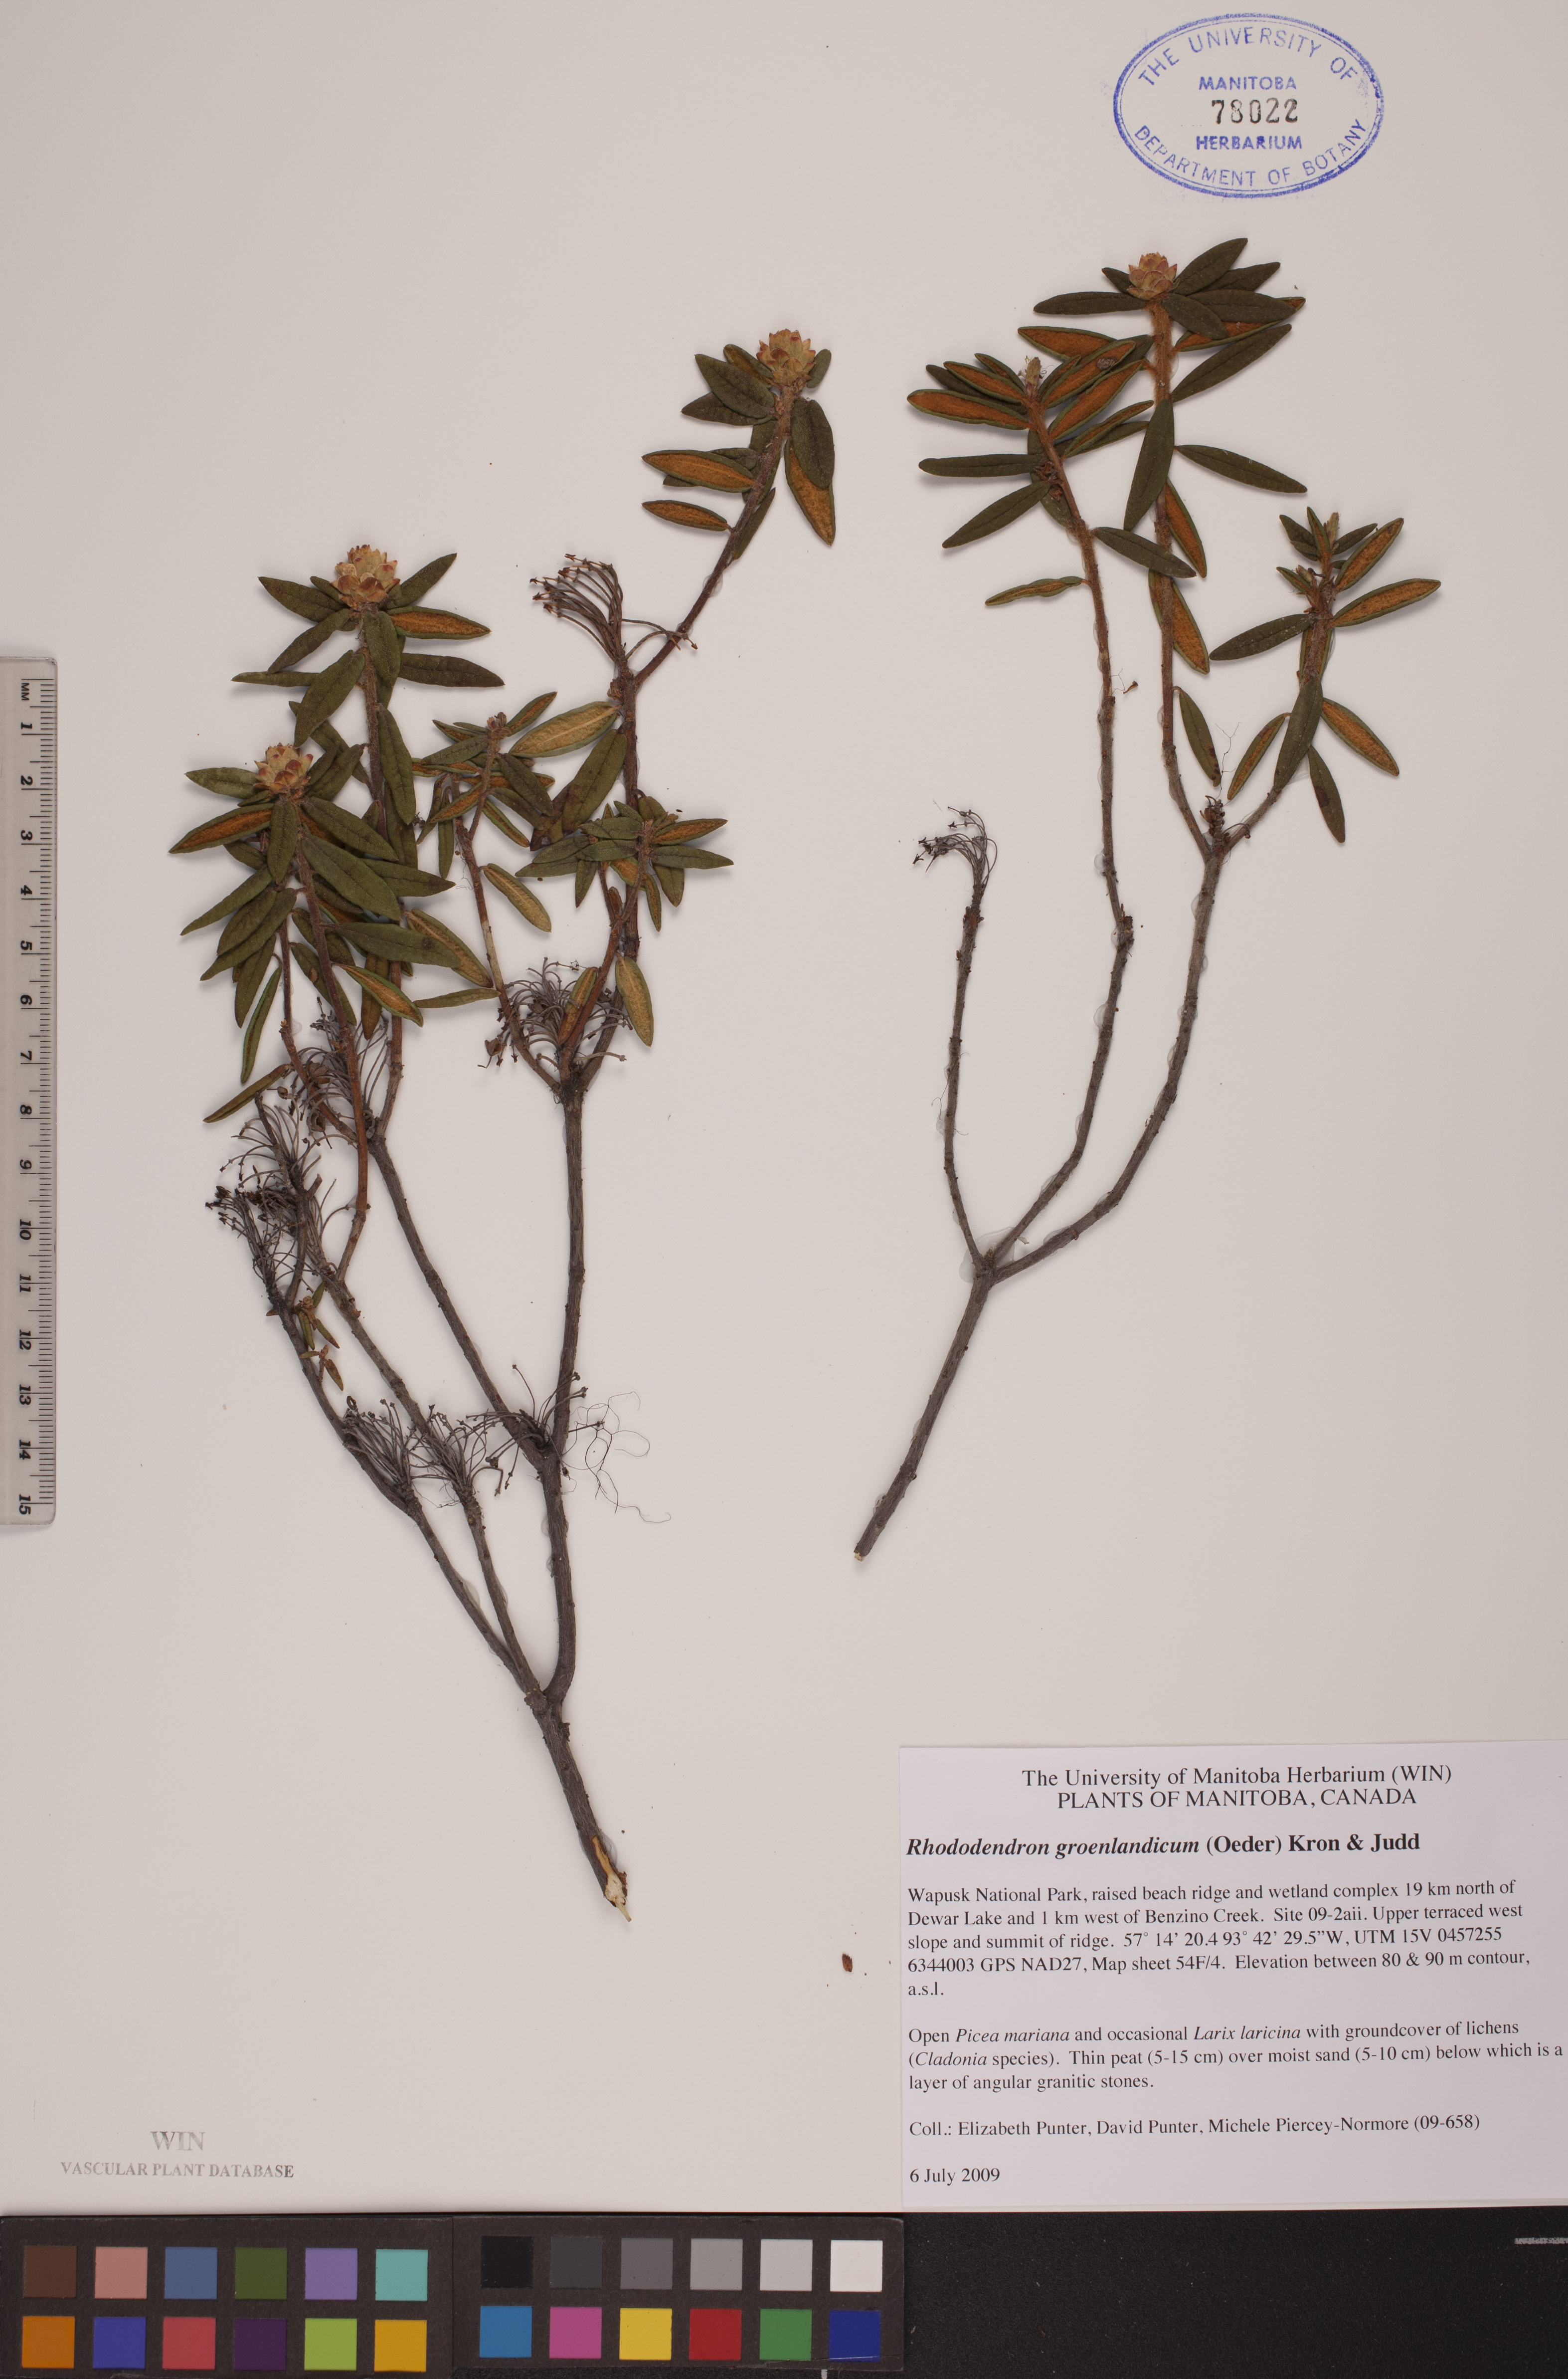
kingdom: Plantae
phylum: Tracheophyta
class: Magnoliopsida
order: Ericales
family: Ericaceae
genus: Rhododendron
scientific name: Rhododendron groenlandicum
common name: Bog labrador tea
